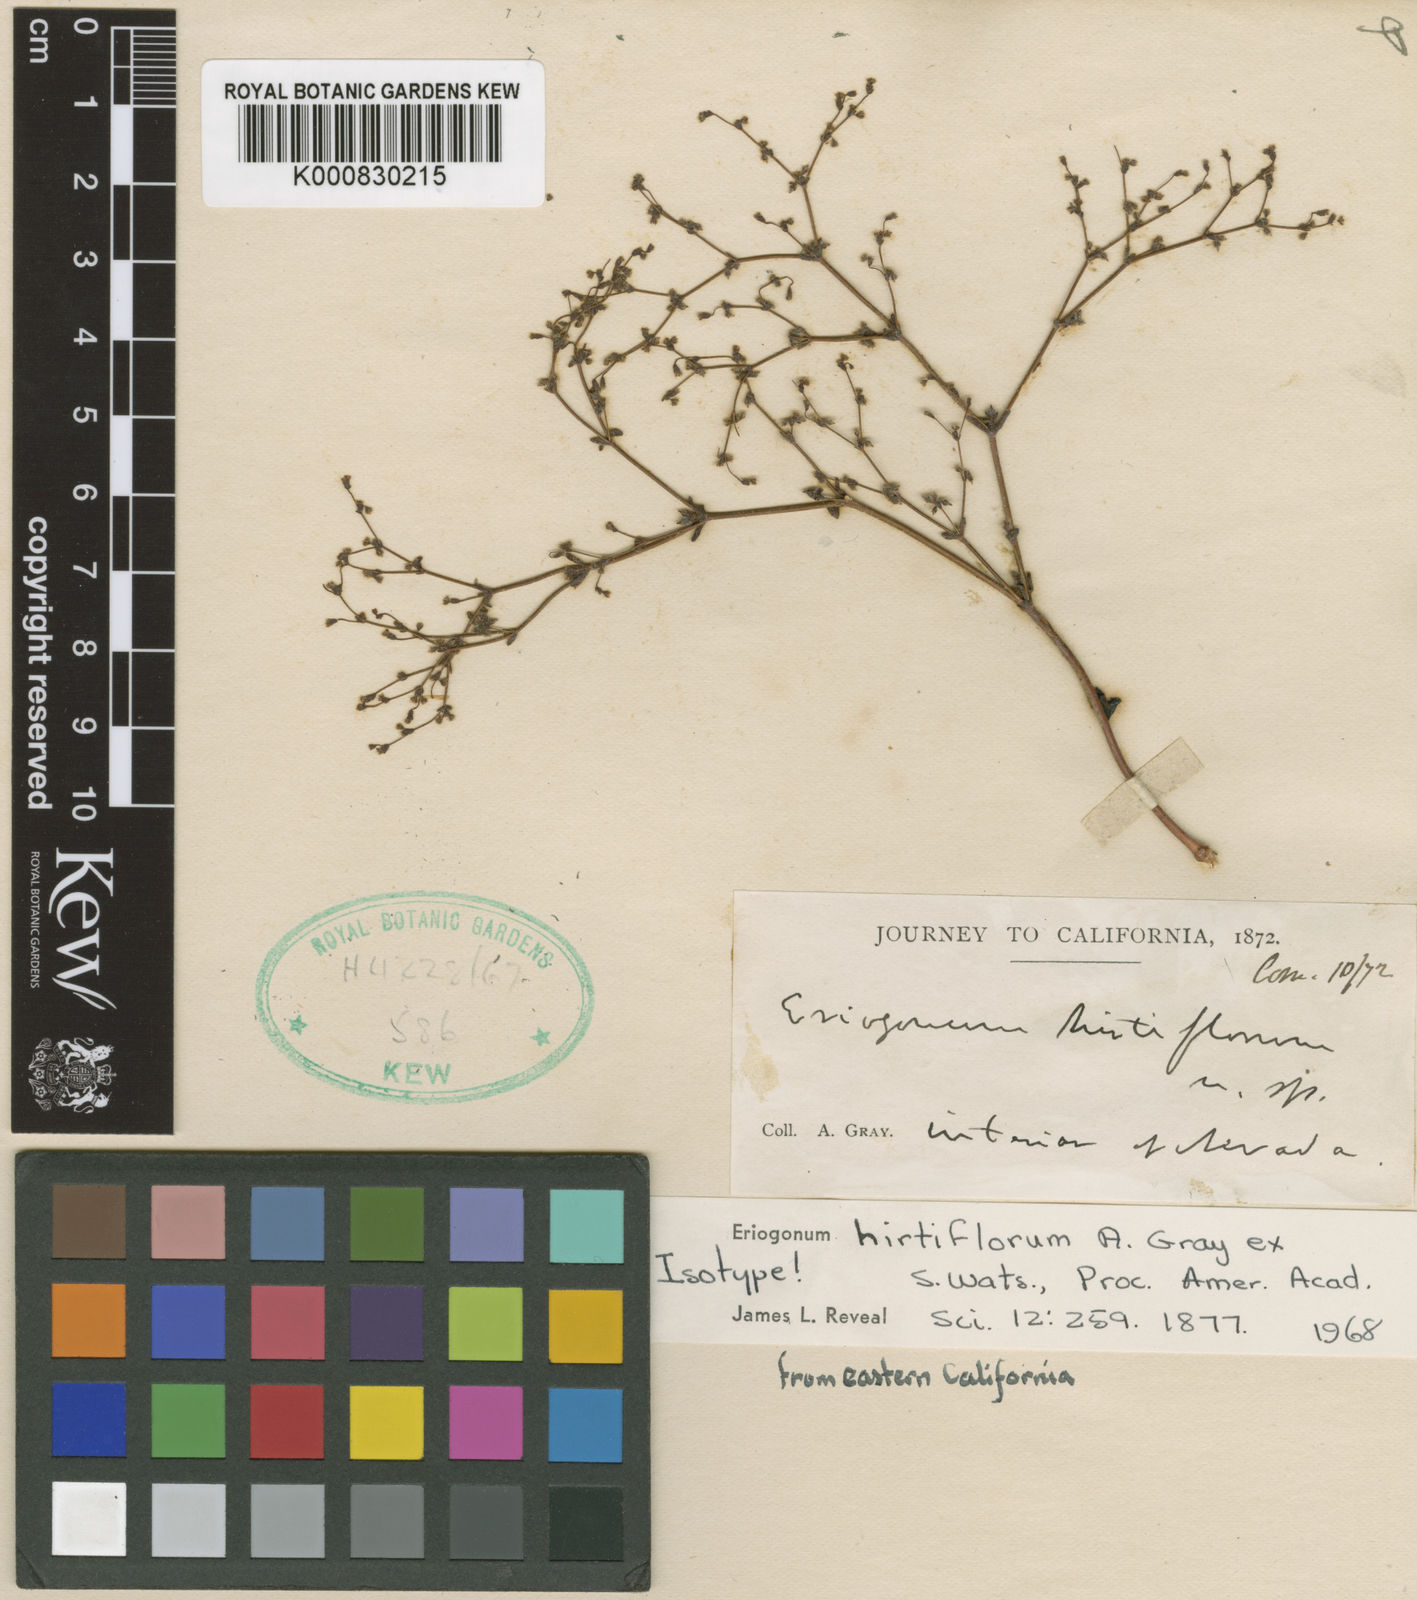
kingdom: Plantae
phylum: Tracheophyta
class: Magnoliopsida
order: Caryophyllales
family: Polygonaceae
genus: Eriogonum
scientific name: Eriogonum hirtiflorum
